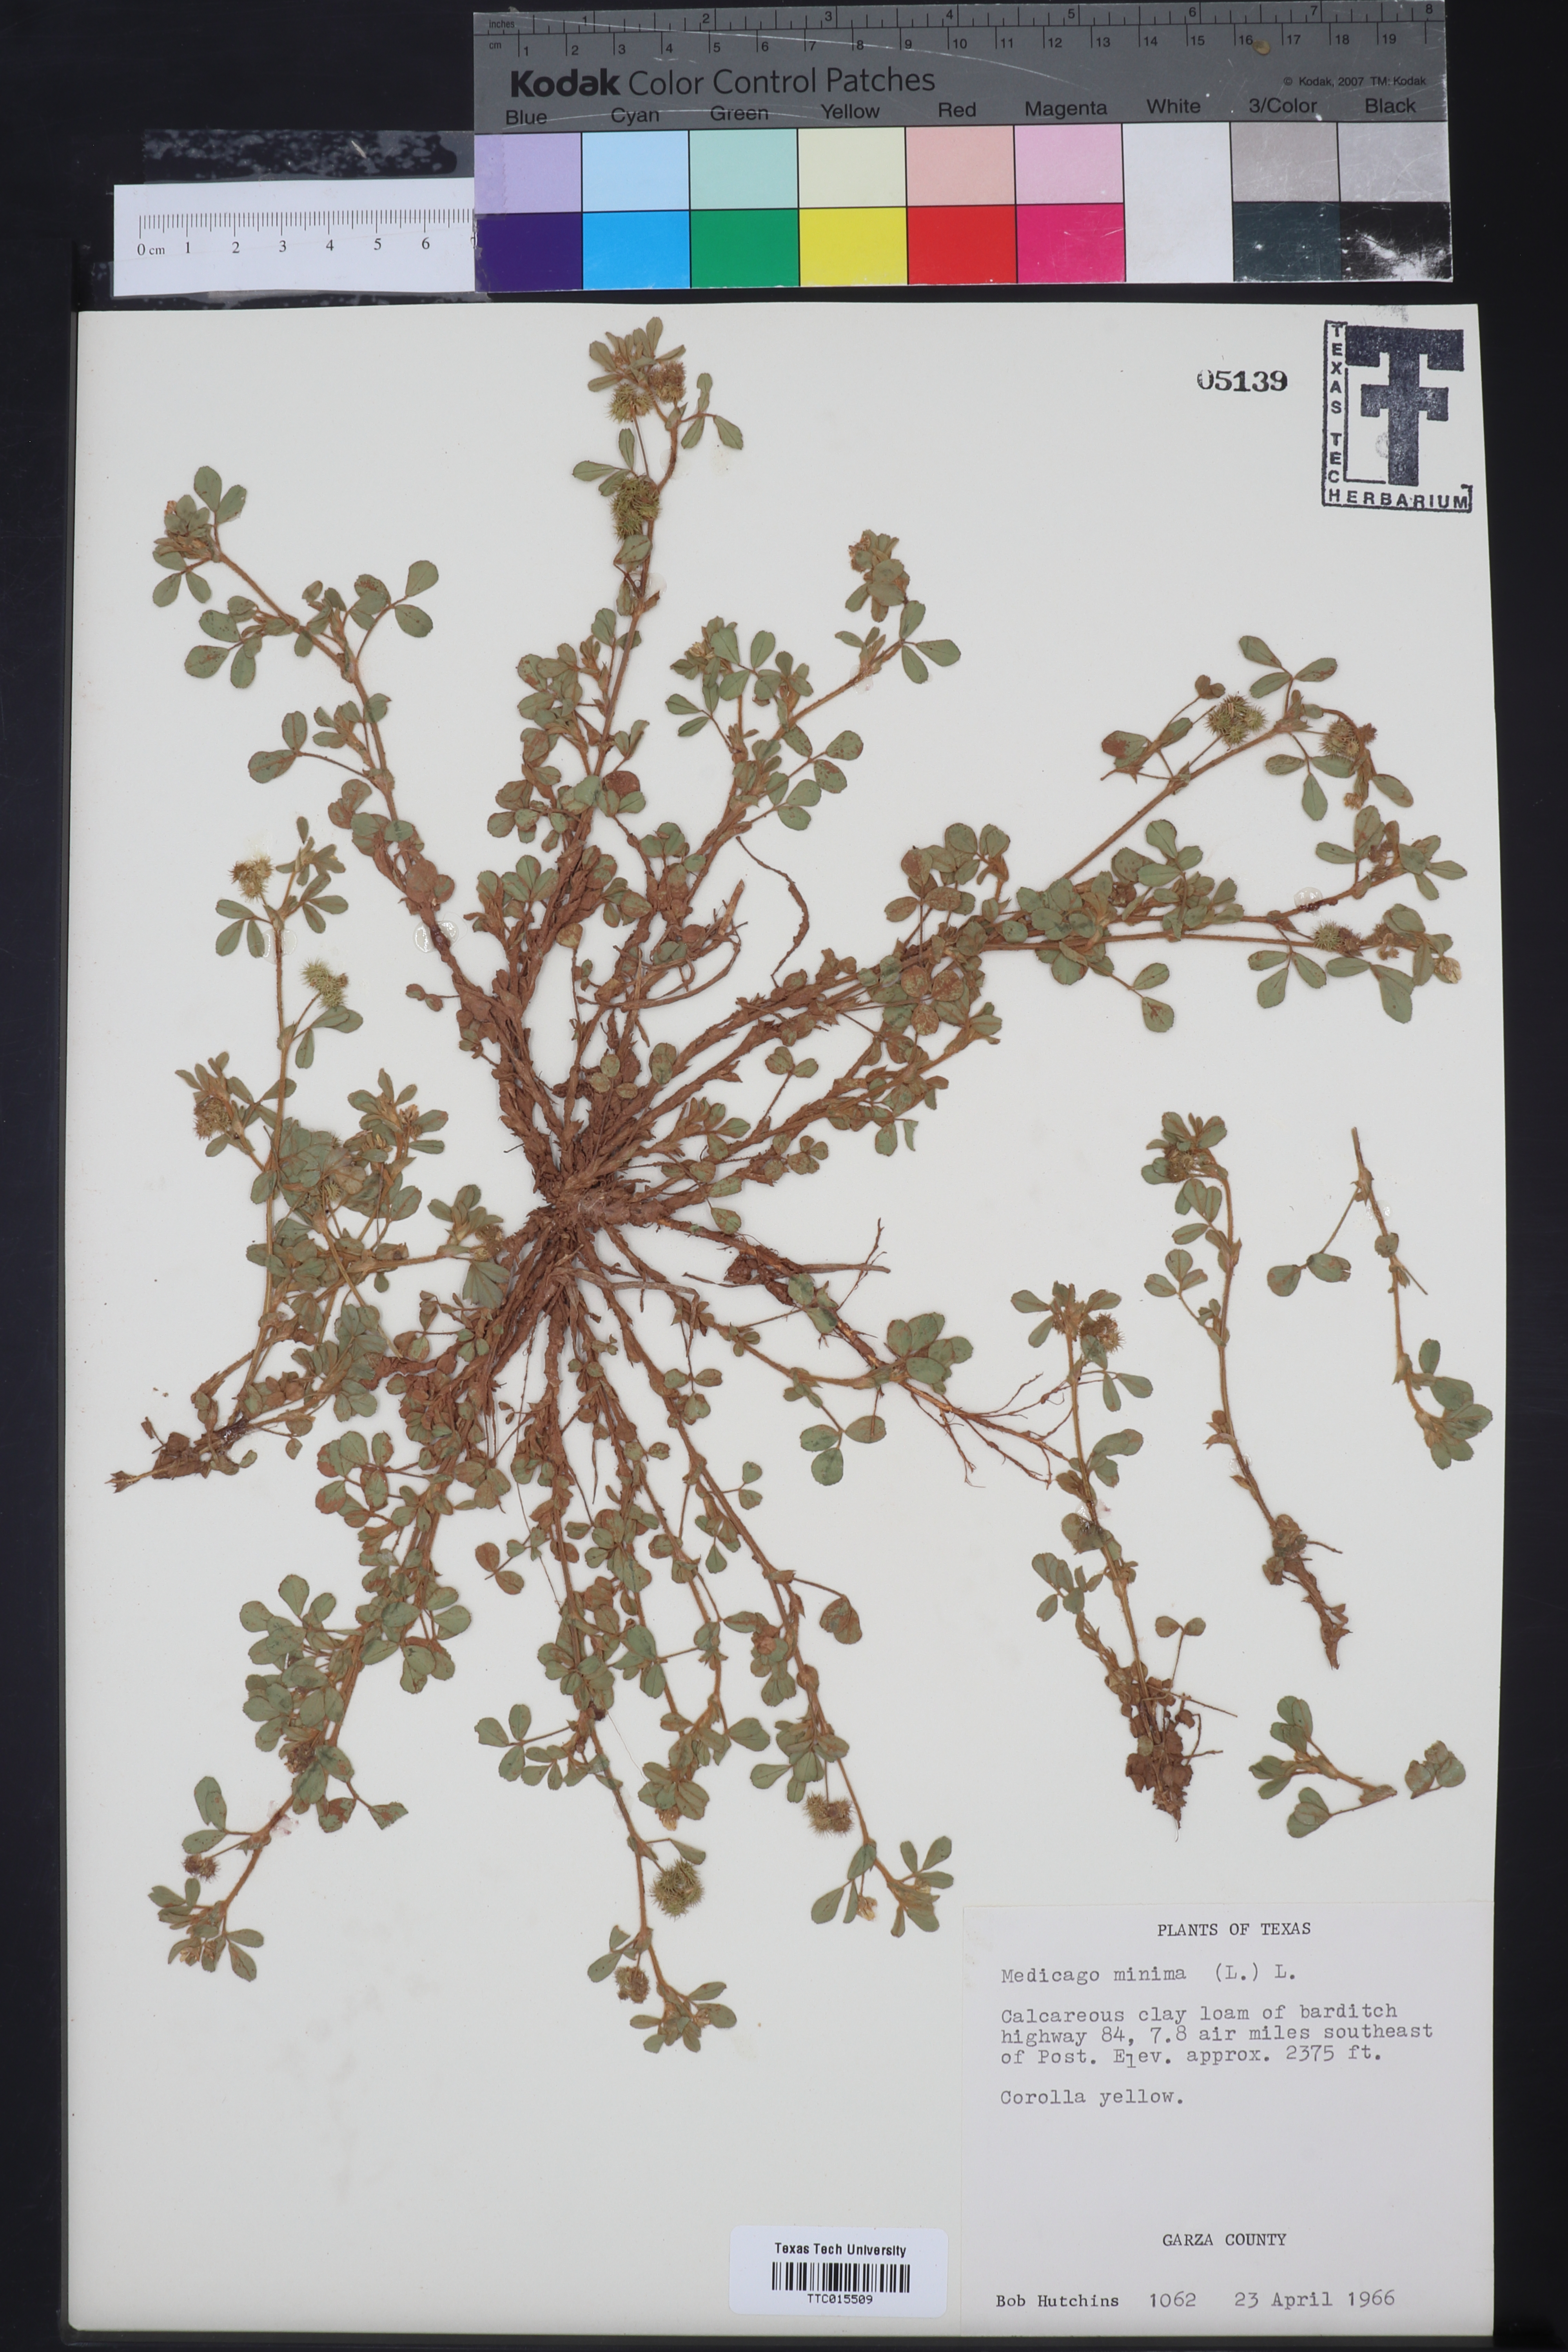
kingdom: Plantae
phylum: Tracheophyta
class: Magnoliopsida
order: Fabales
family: Fabaceae
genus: Medicago
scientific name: Medicago minima
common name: Little bur-clover
